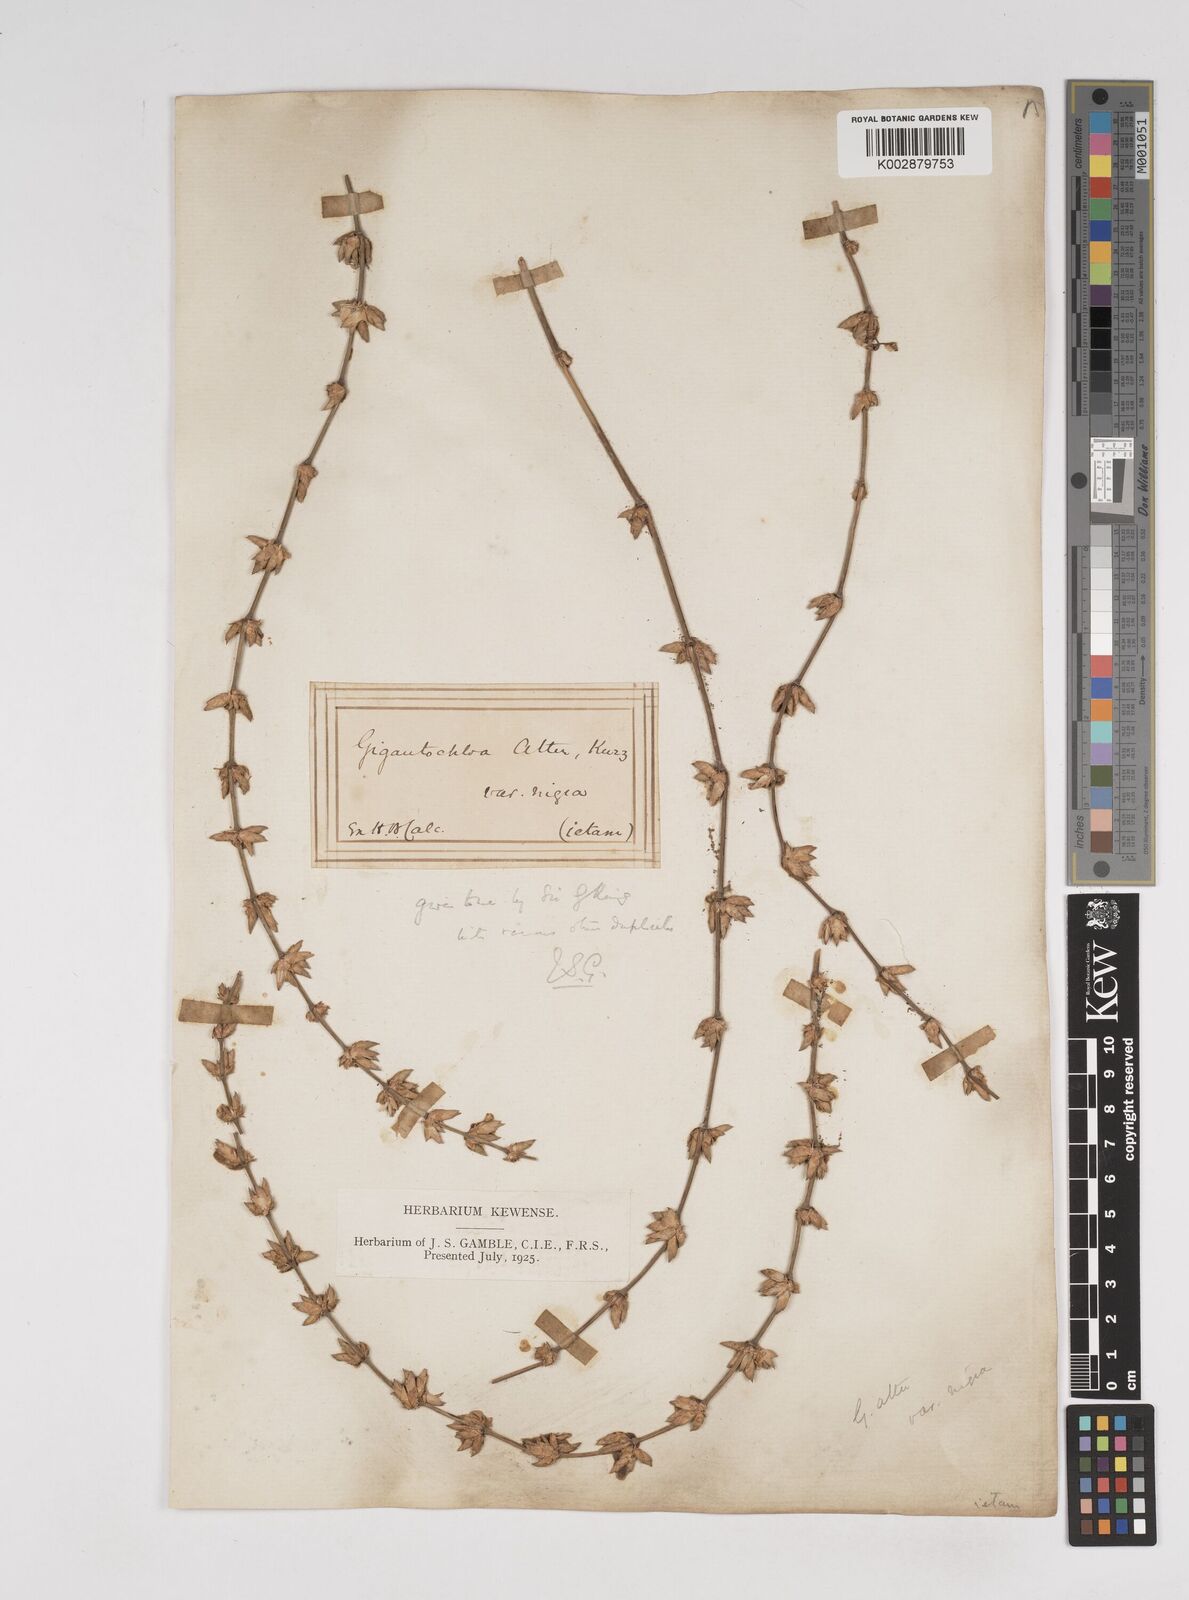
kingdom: Plantae
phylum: Tracheophyta
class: Liliopsida
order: Poales
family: Poaceae
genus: Gigantochloa
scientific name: Gigantochloa atter
